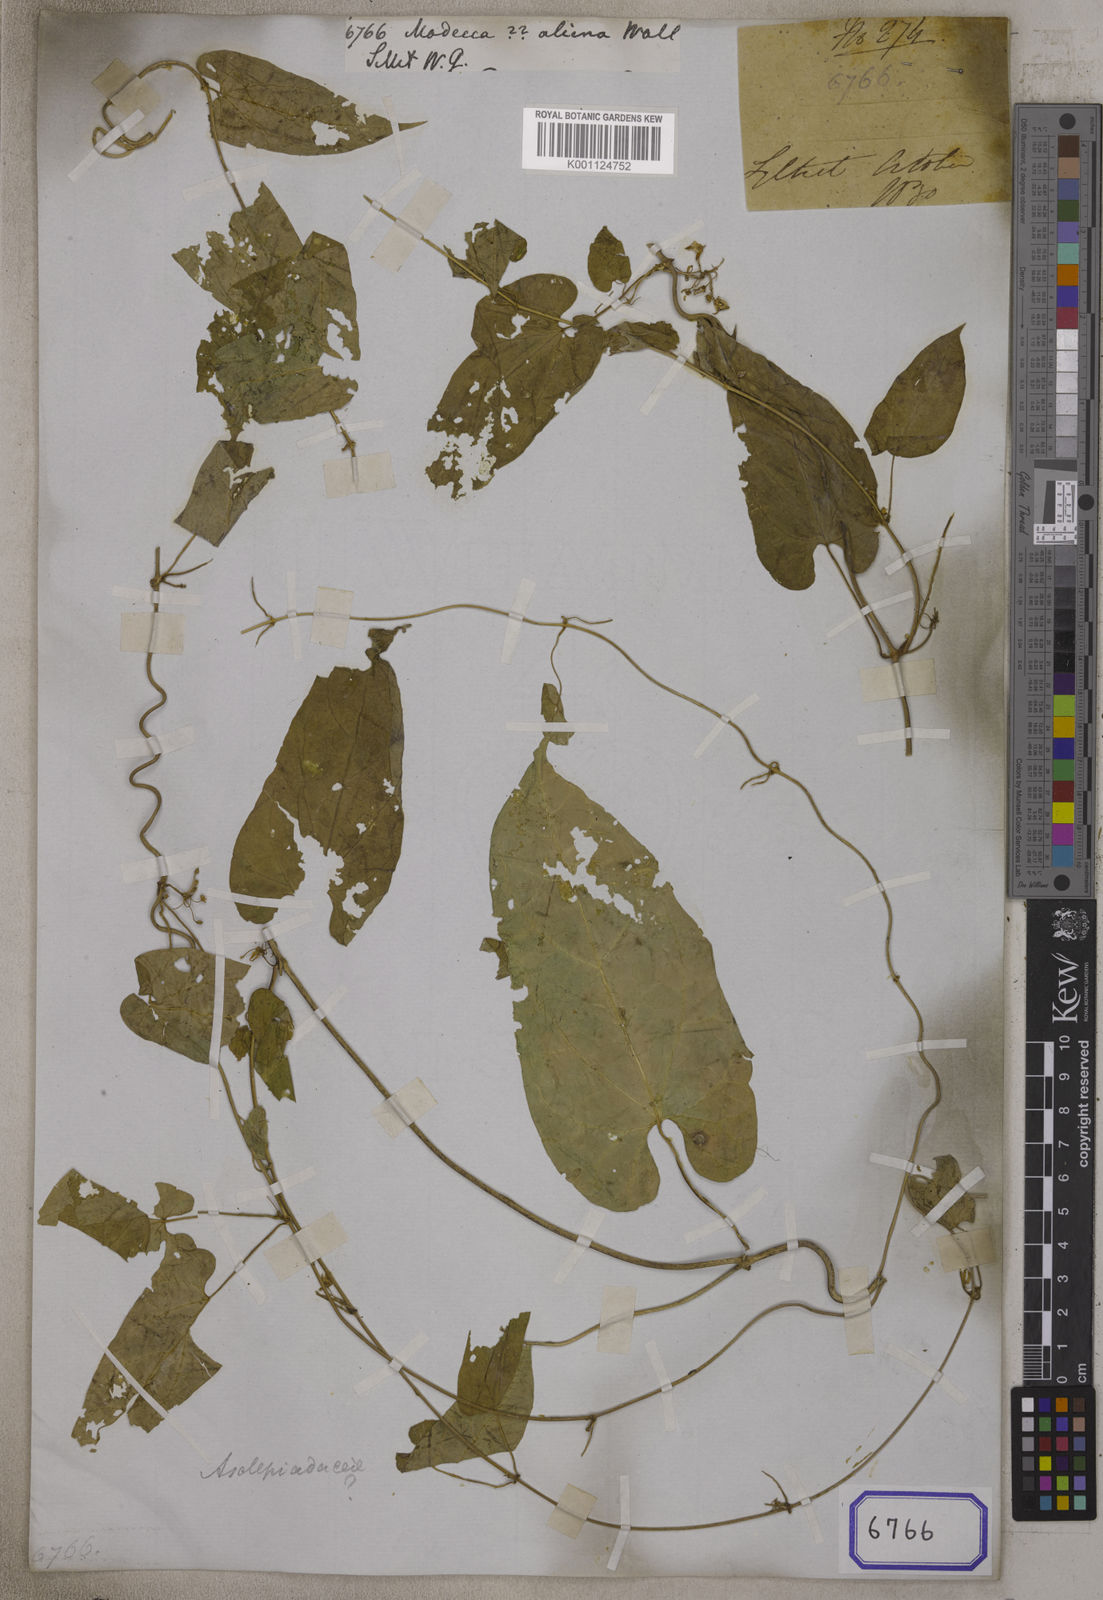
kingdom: Plantae
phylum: Tracheophyta
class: Magnoliopsida
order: Malpighiales
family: Passifloraceae
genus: Adenia
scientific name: Adenia
